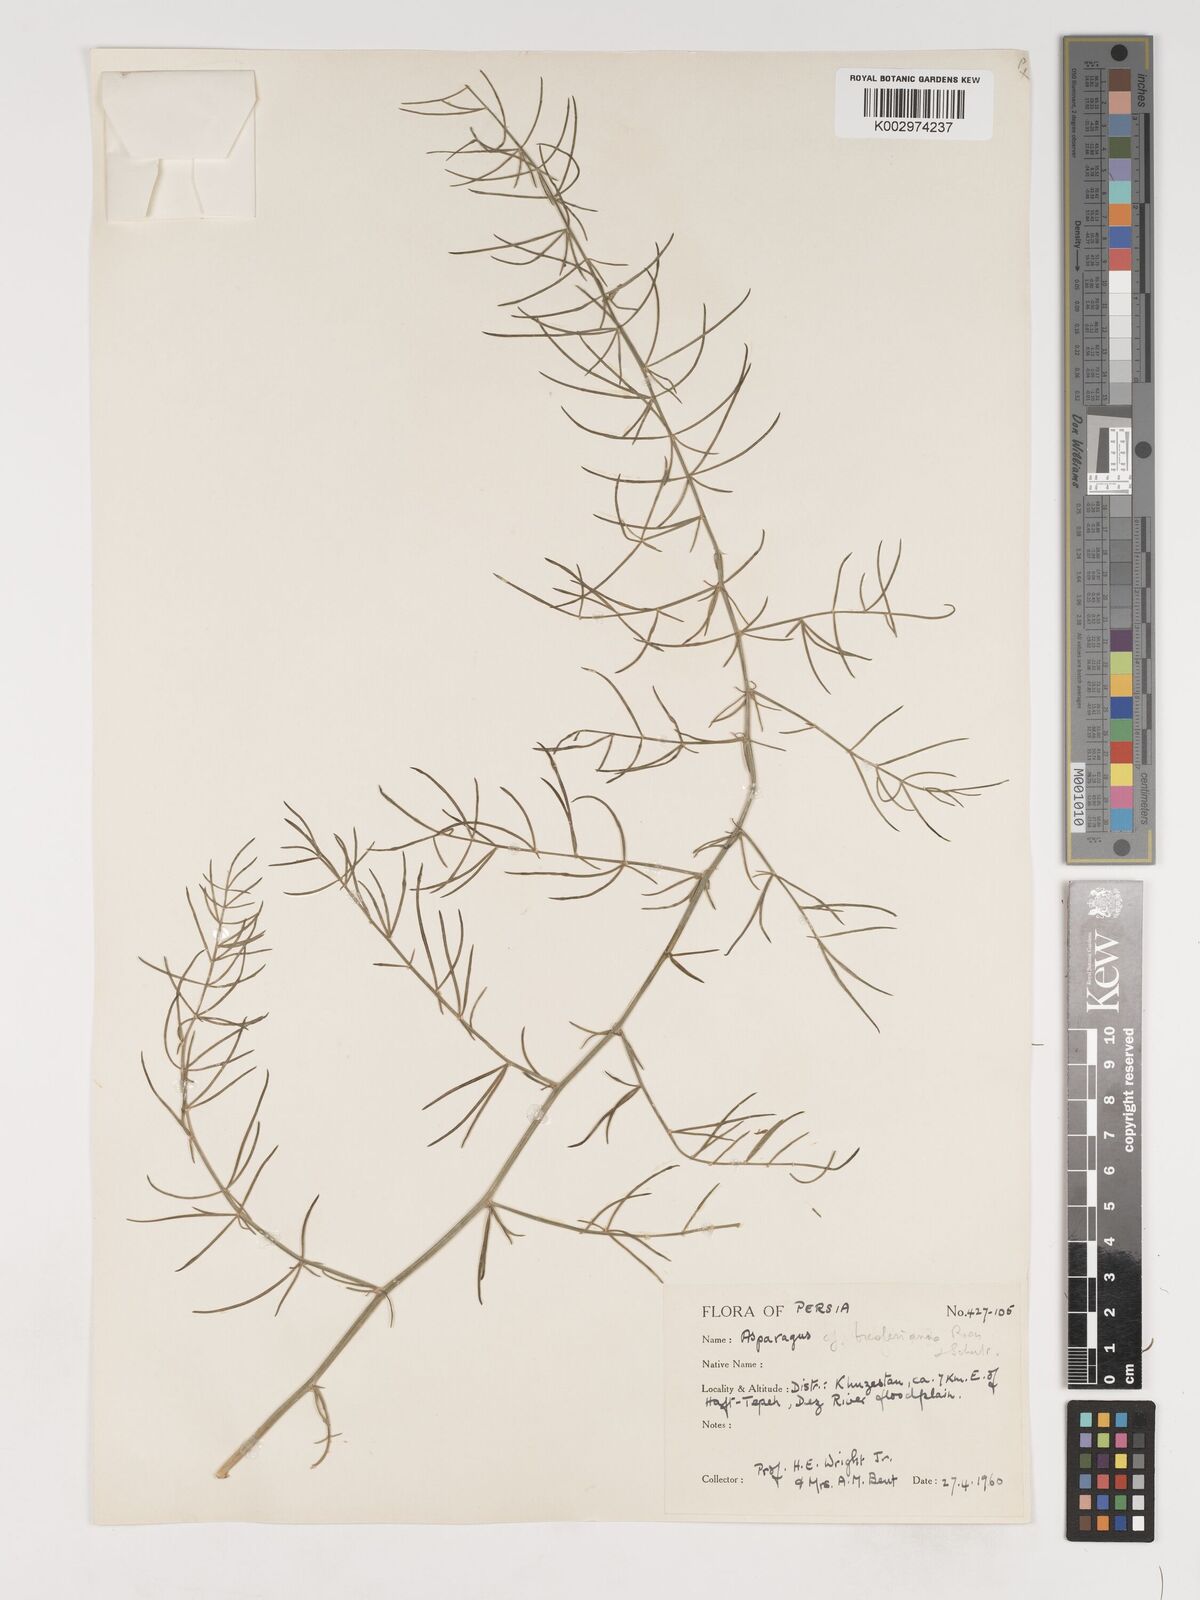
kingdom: Plantae
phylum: Tracheophyta
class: Liliopsida
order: Asparagales
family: Asparagaceae
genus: Asparagus
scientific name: Asparagus breslerianus
